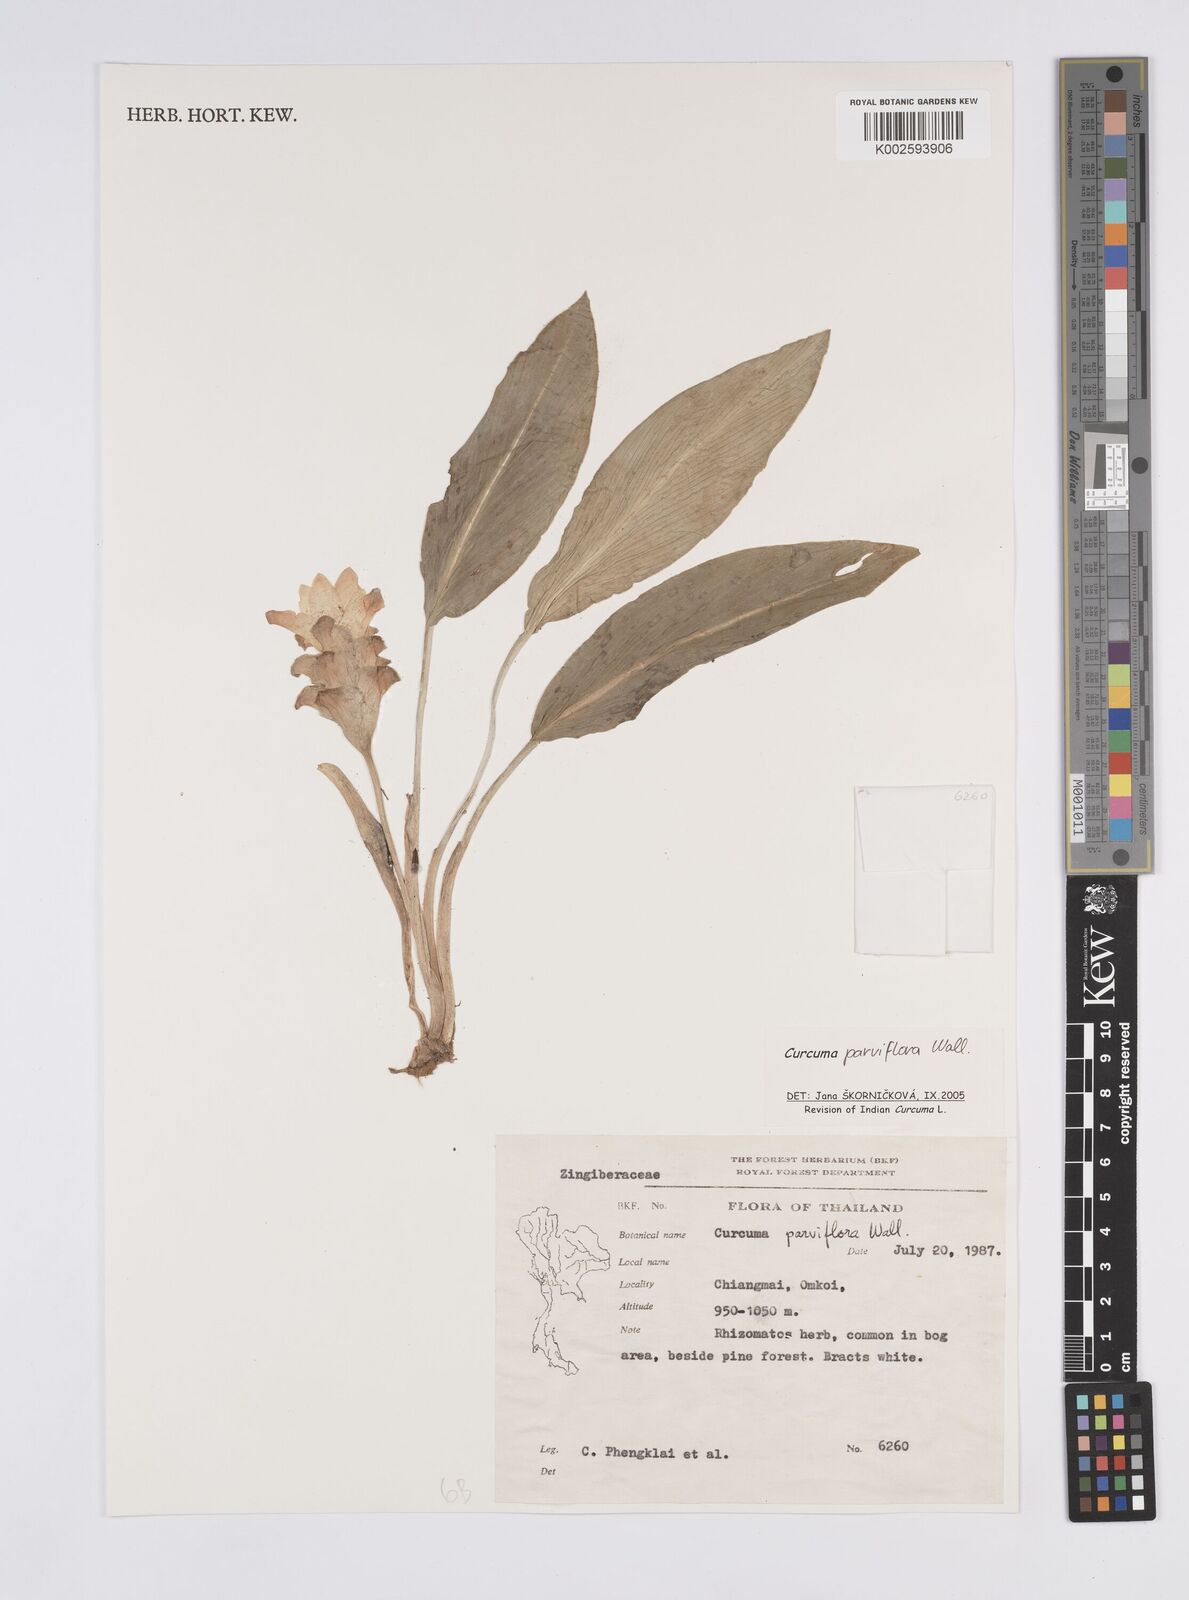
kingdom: Plantae
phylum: Tracheophyta
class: Liliopsida
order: Zingiberales
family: Zingiberaceae
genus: Curcuma
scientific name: Curcuma parviflora
